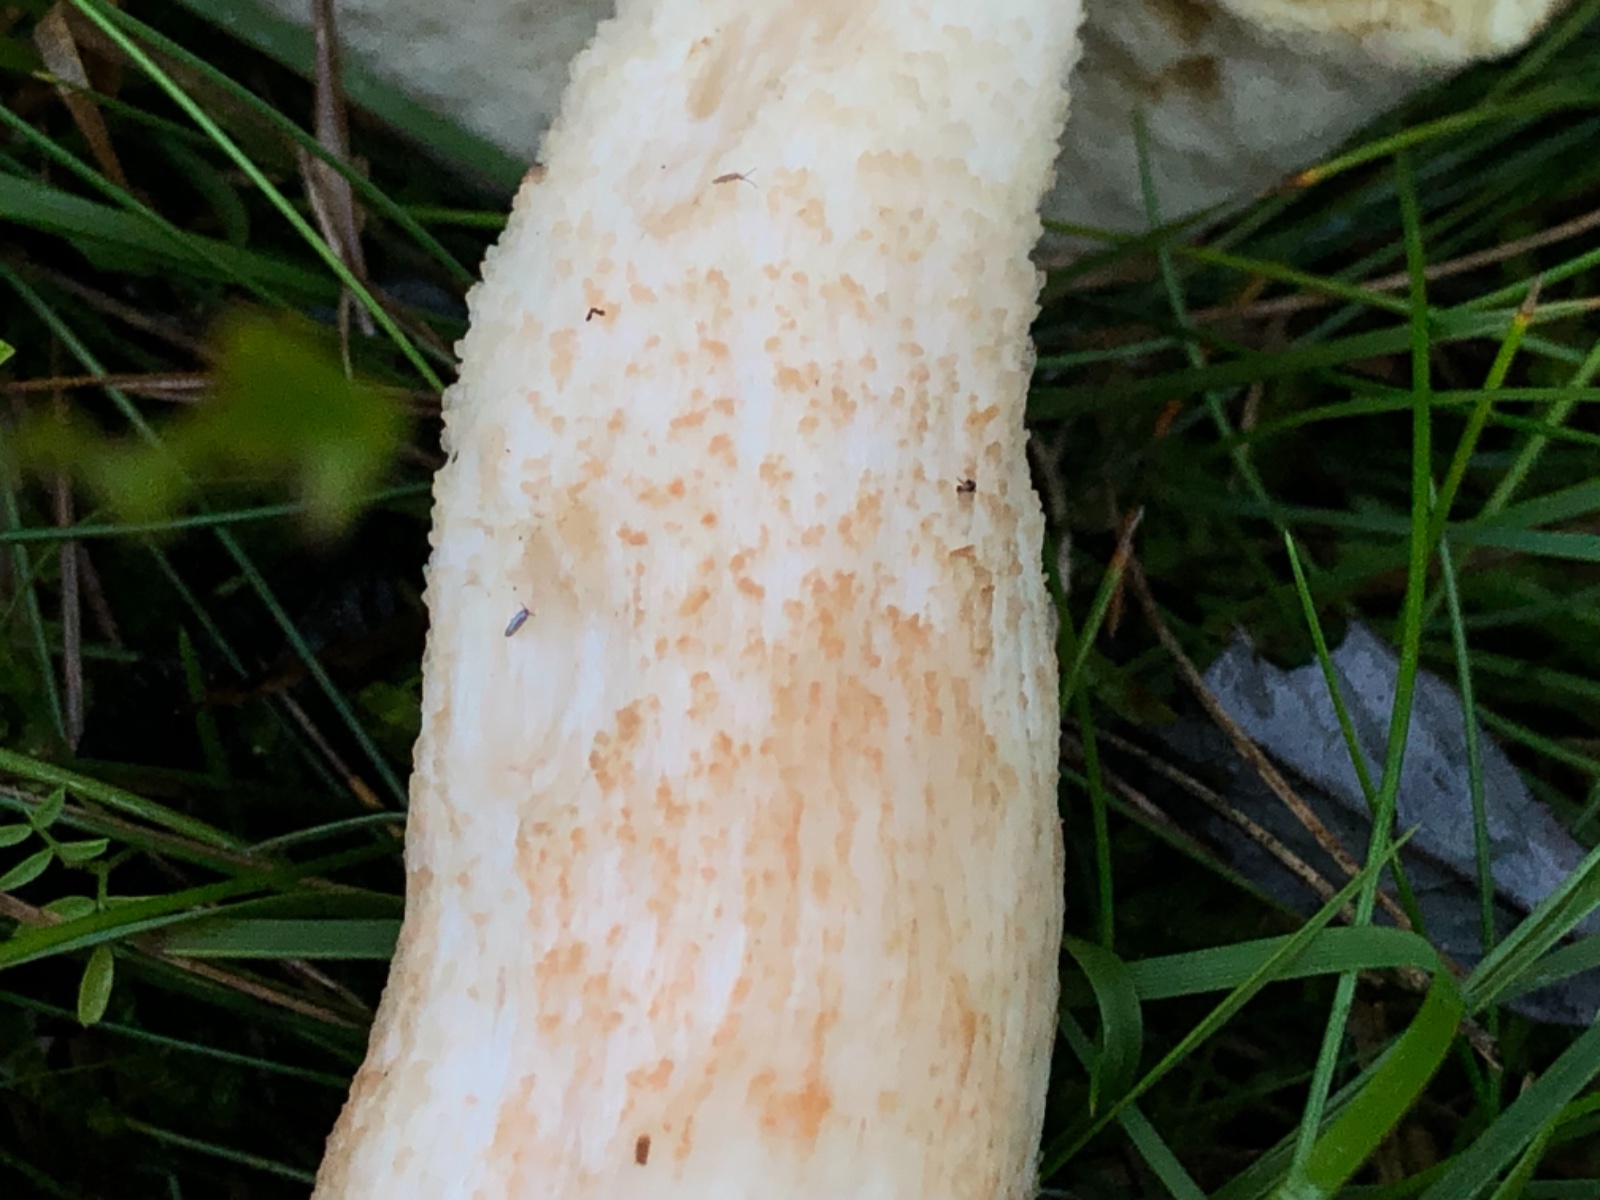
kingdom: Fungi
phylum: Basidiomycota
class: Agaricomycetes
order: Boletales
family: Boletaceae
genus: Leccinum
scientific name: Leccinum albostipitatum
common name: aspe-skælrørhat
